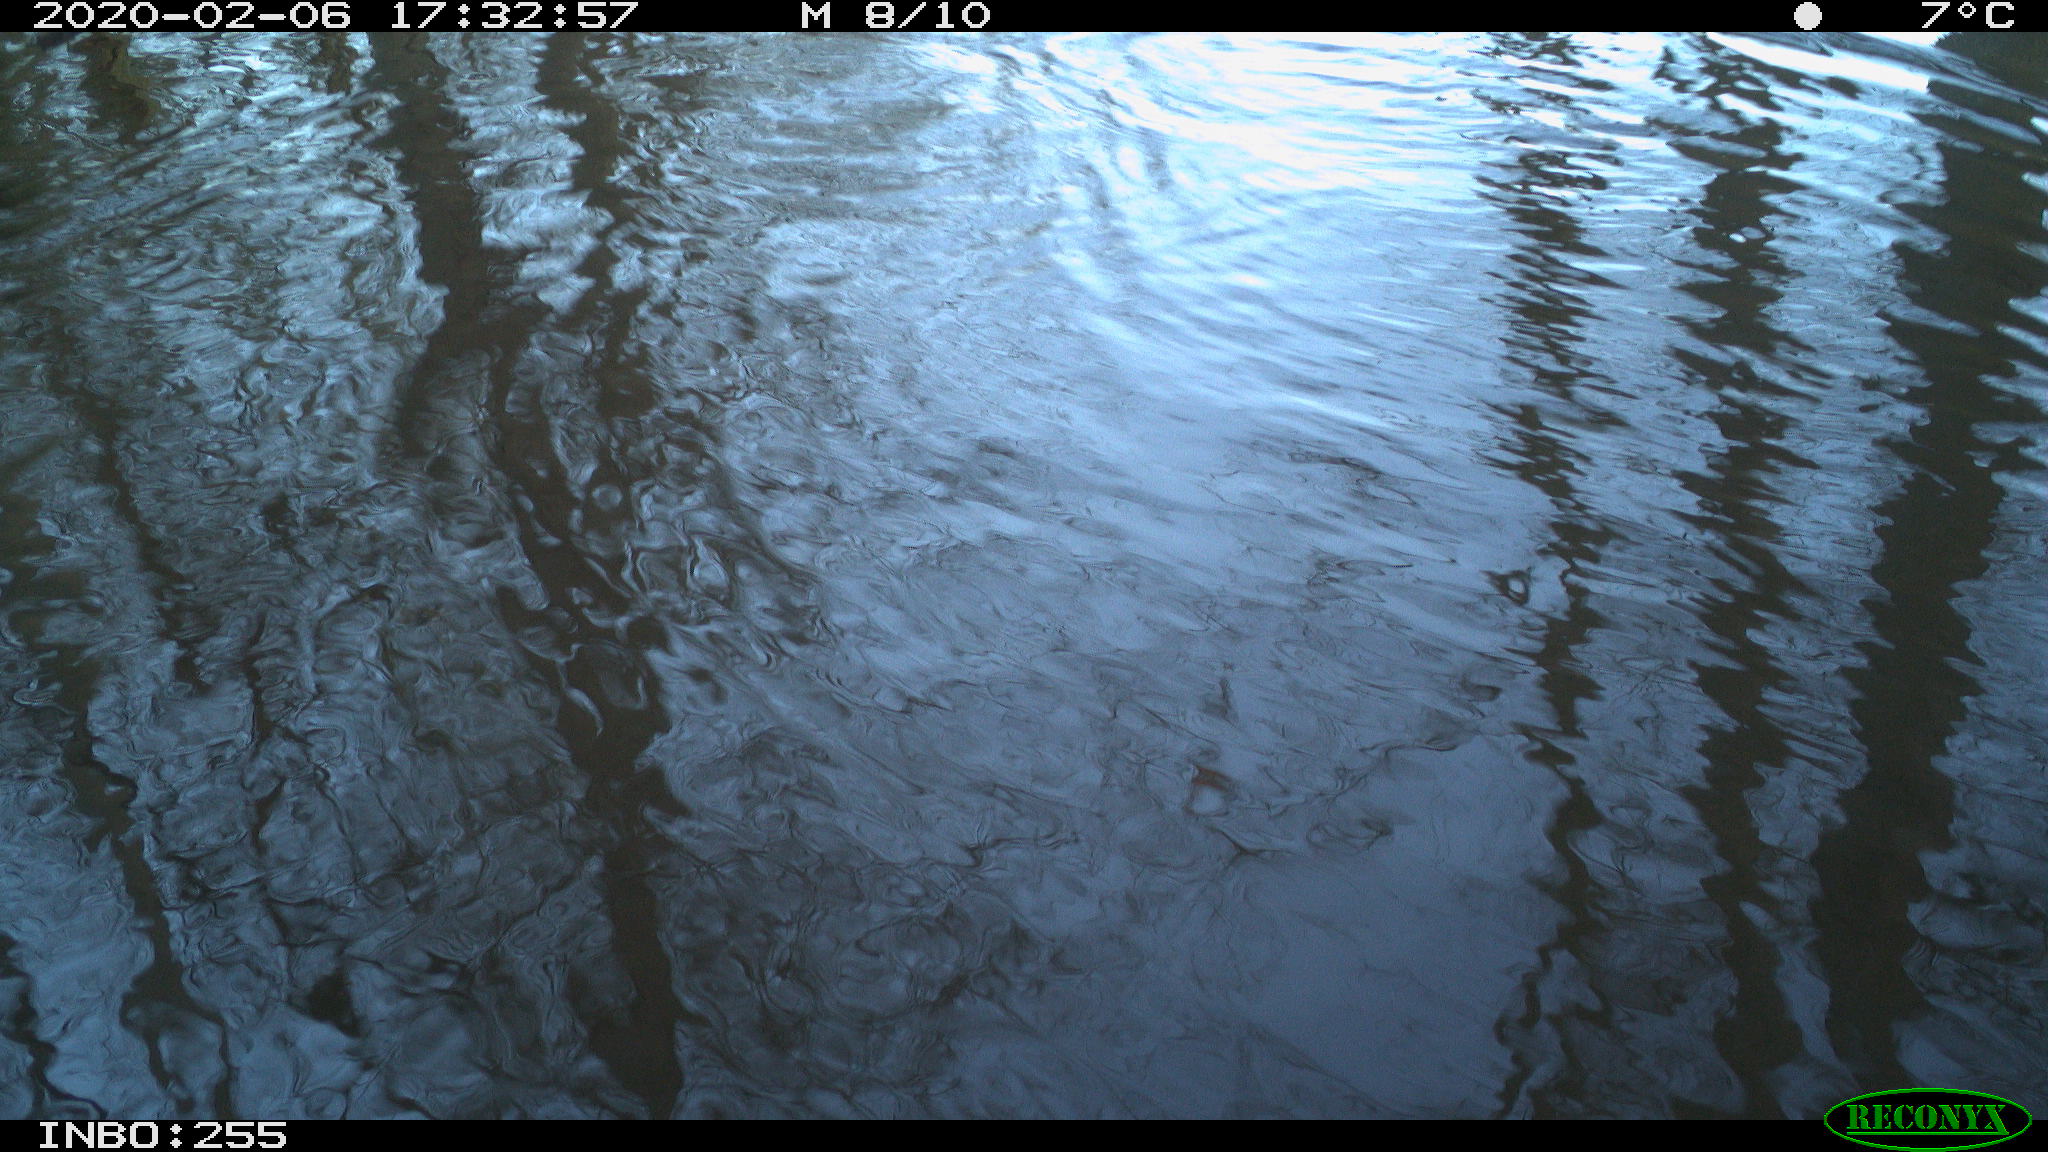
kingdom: Animalia
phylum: Chordata
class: Aves
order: Gruiformes
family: Rallidae
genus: Fulica
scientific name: Fulica atra
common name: Eurasian coot
